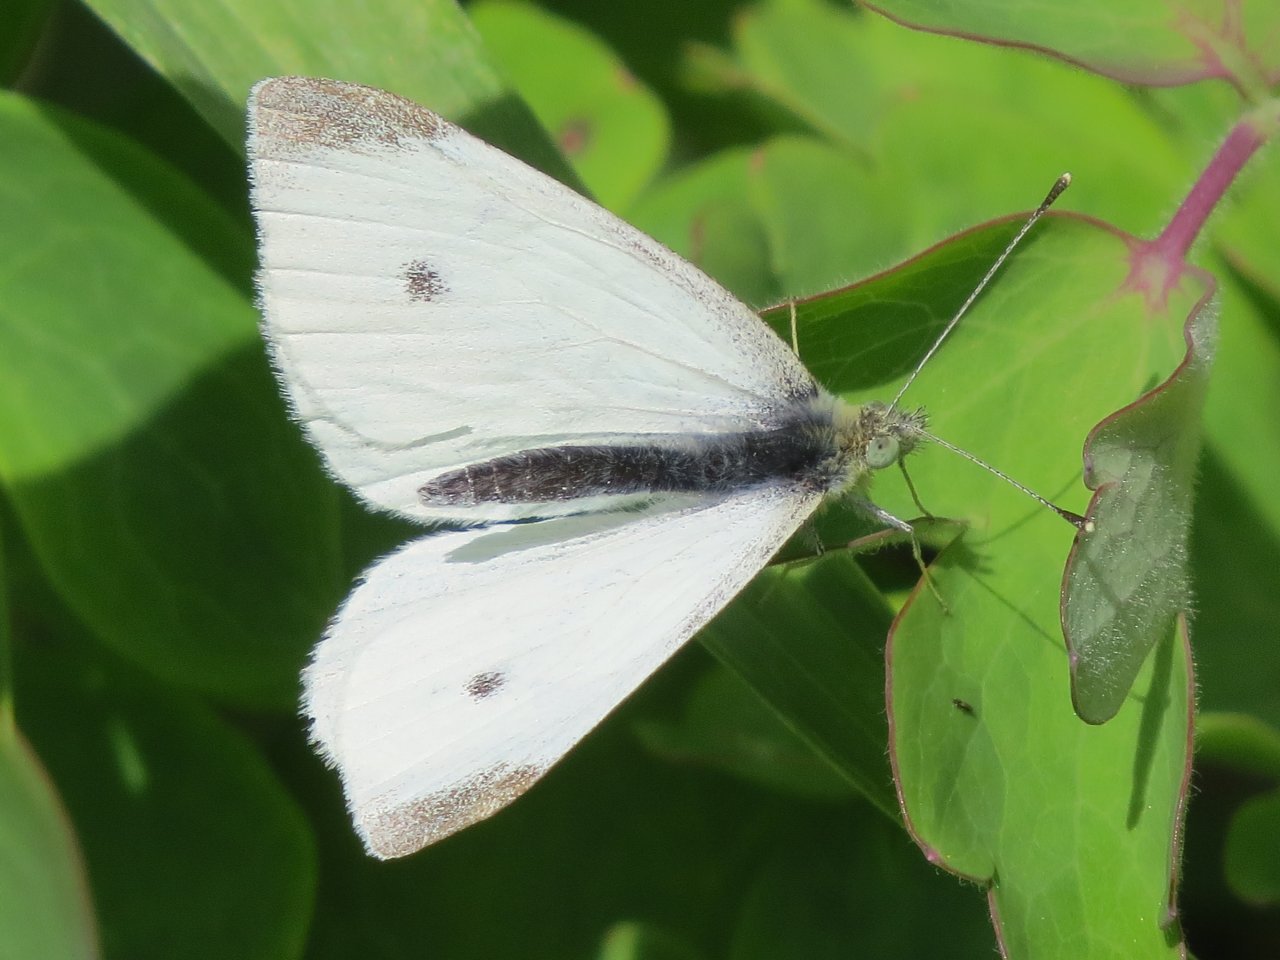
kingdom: Animalia
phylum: Arthropoda
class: Insecta
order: Lepidoptera
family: Pieridae
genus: Pieris
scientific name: Pieris rapae
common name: Cabbage White
